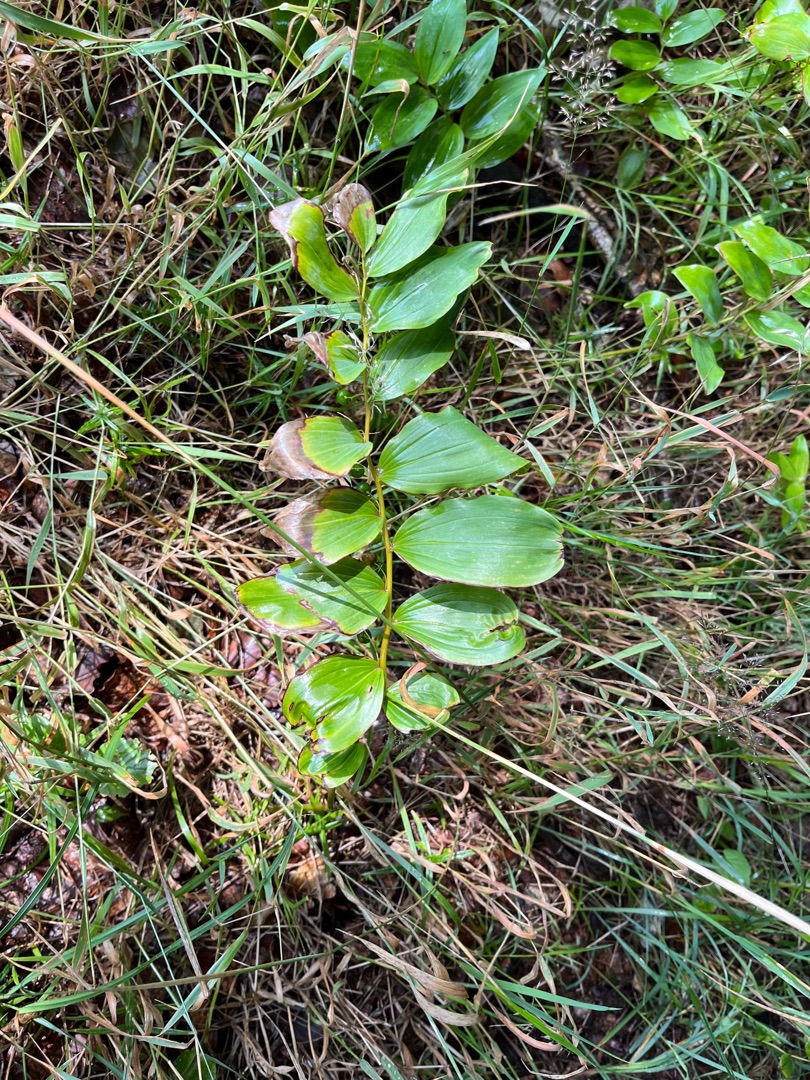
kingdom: Plantae
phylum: Tracheophyta
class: Liliopsida
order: Asparagales
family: Asparagaceae
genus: Polygonatum
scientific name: Polygonatum multiflorum
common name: Stor konval
